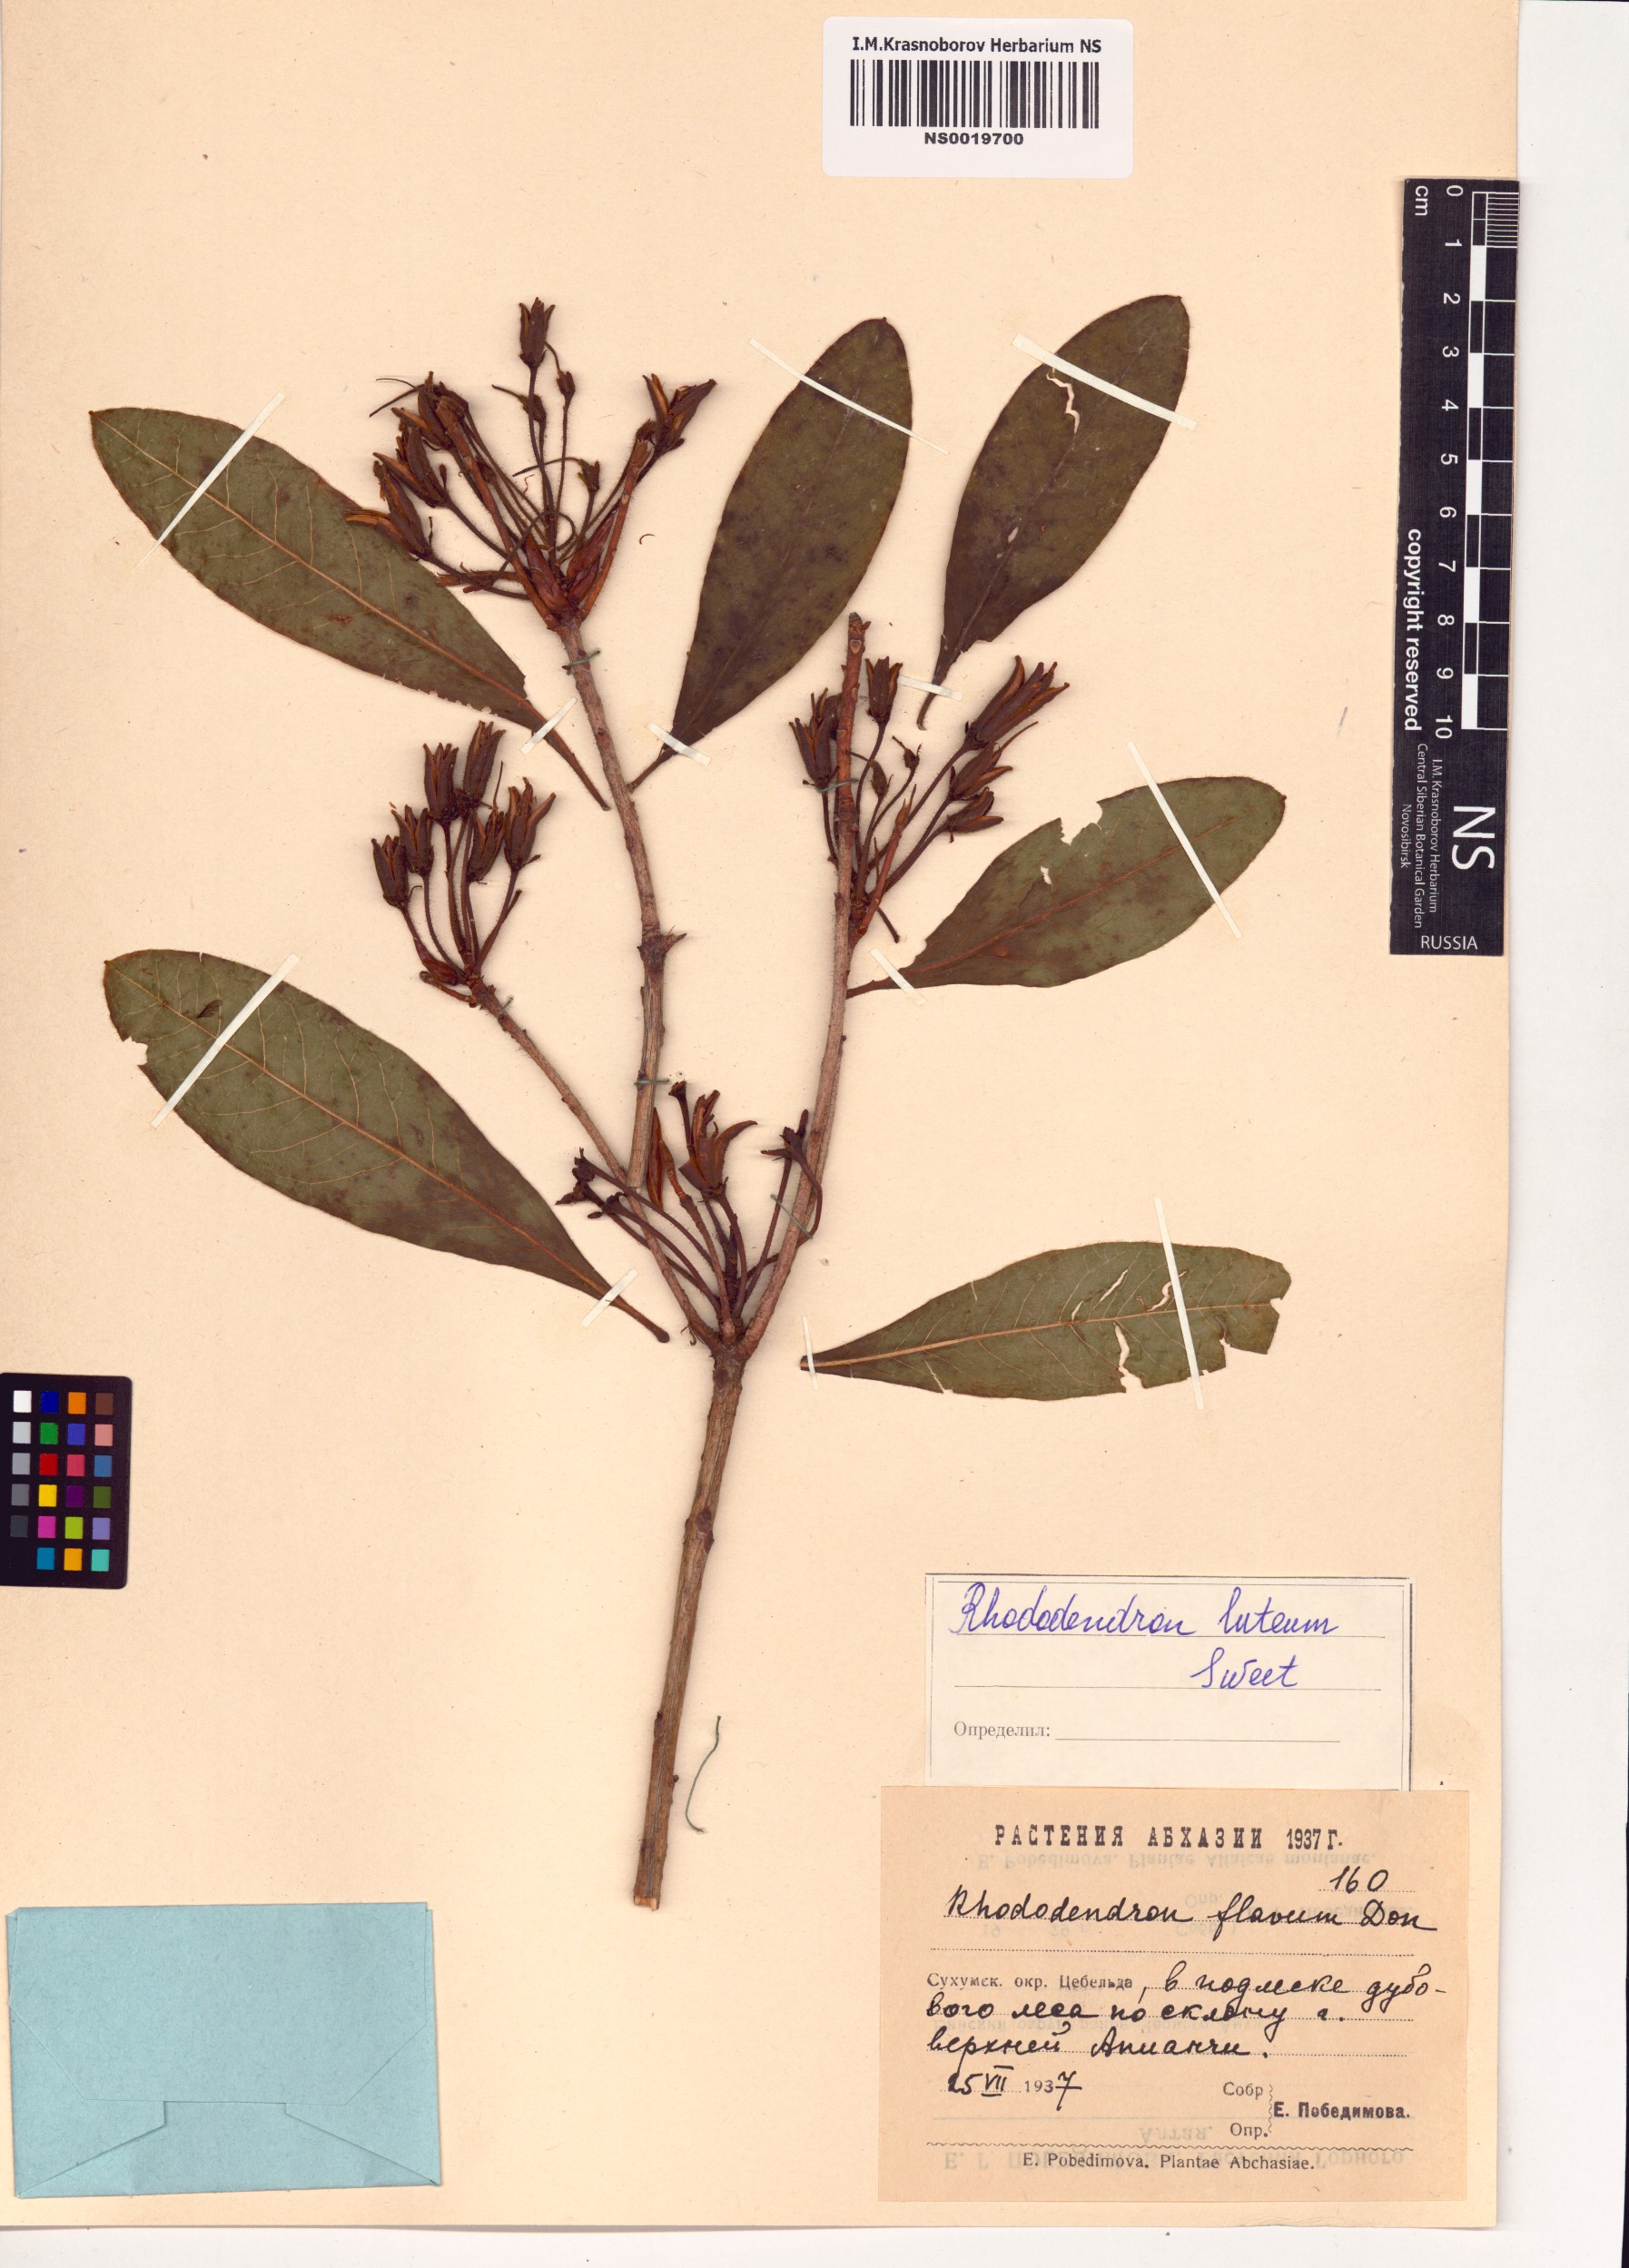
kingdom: Plantae
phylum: Tracheophyta
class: Magnoliopsida
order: Ericales
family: Ericaceae
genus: Rhododendron
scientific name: Rhododendron luteum
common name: Yellow azalea
